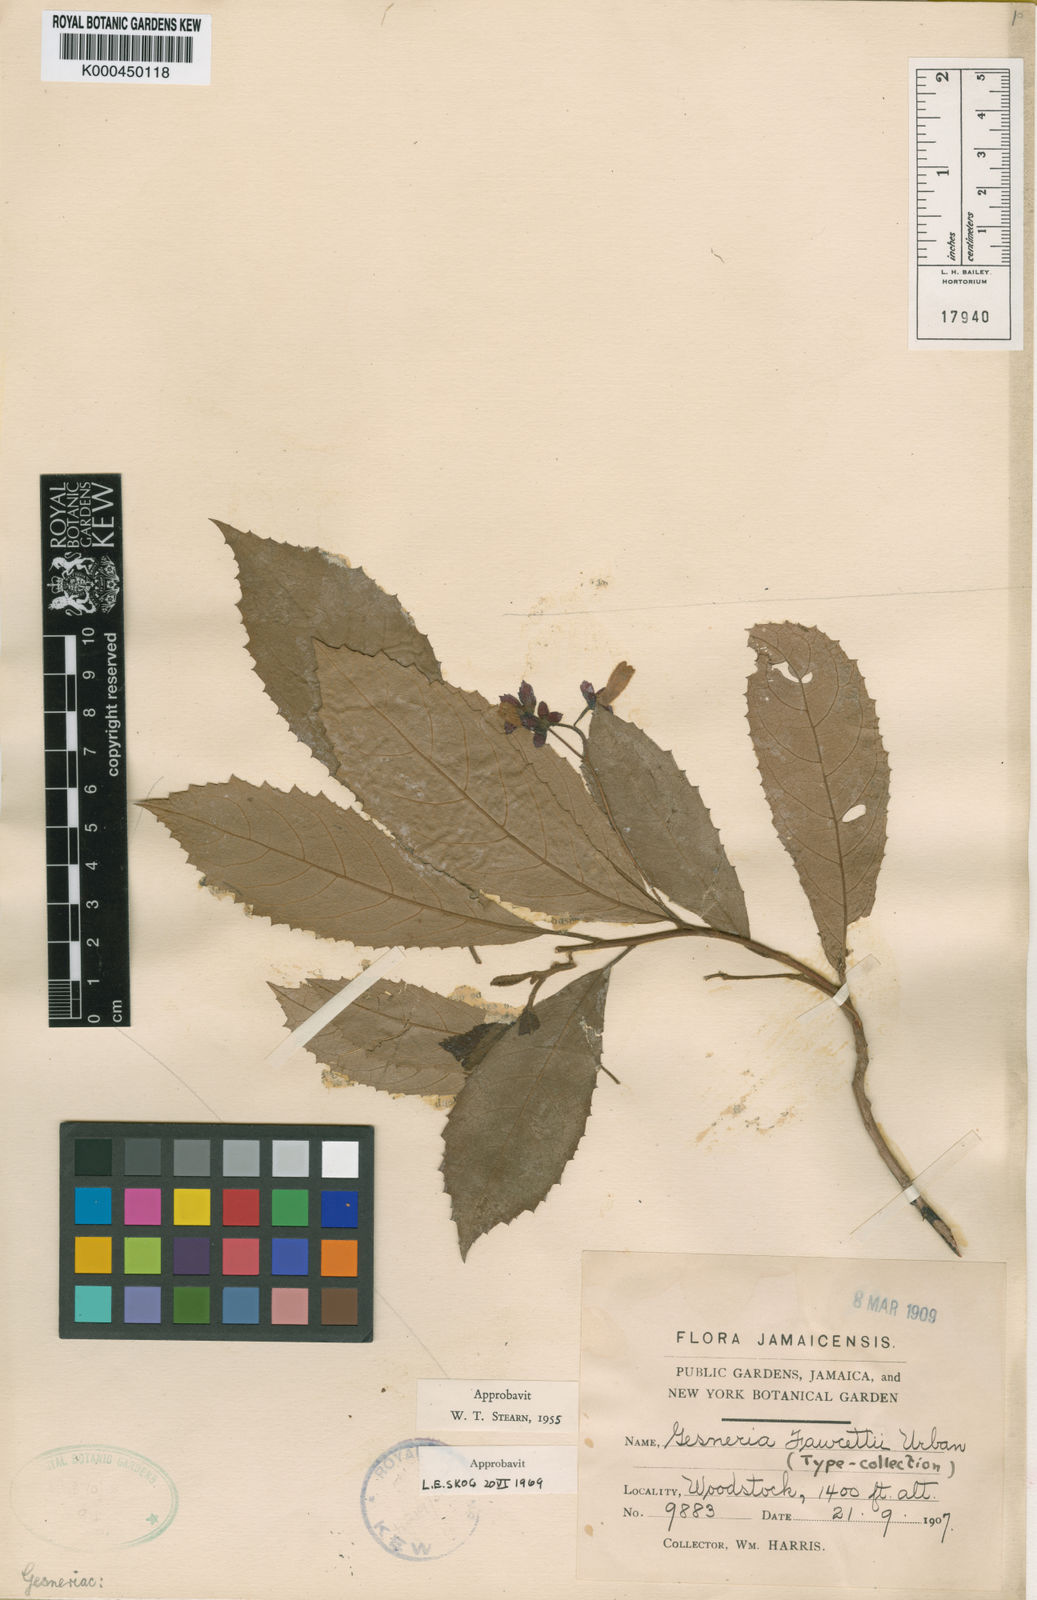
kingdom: Plantae
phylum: Tracheophyta
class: Magnoliopsida
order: Lamiales
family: Gesneriaceae
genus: Gesneria
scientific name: Gesneria scabra
